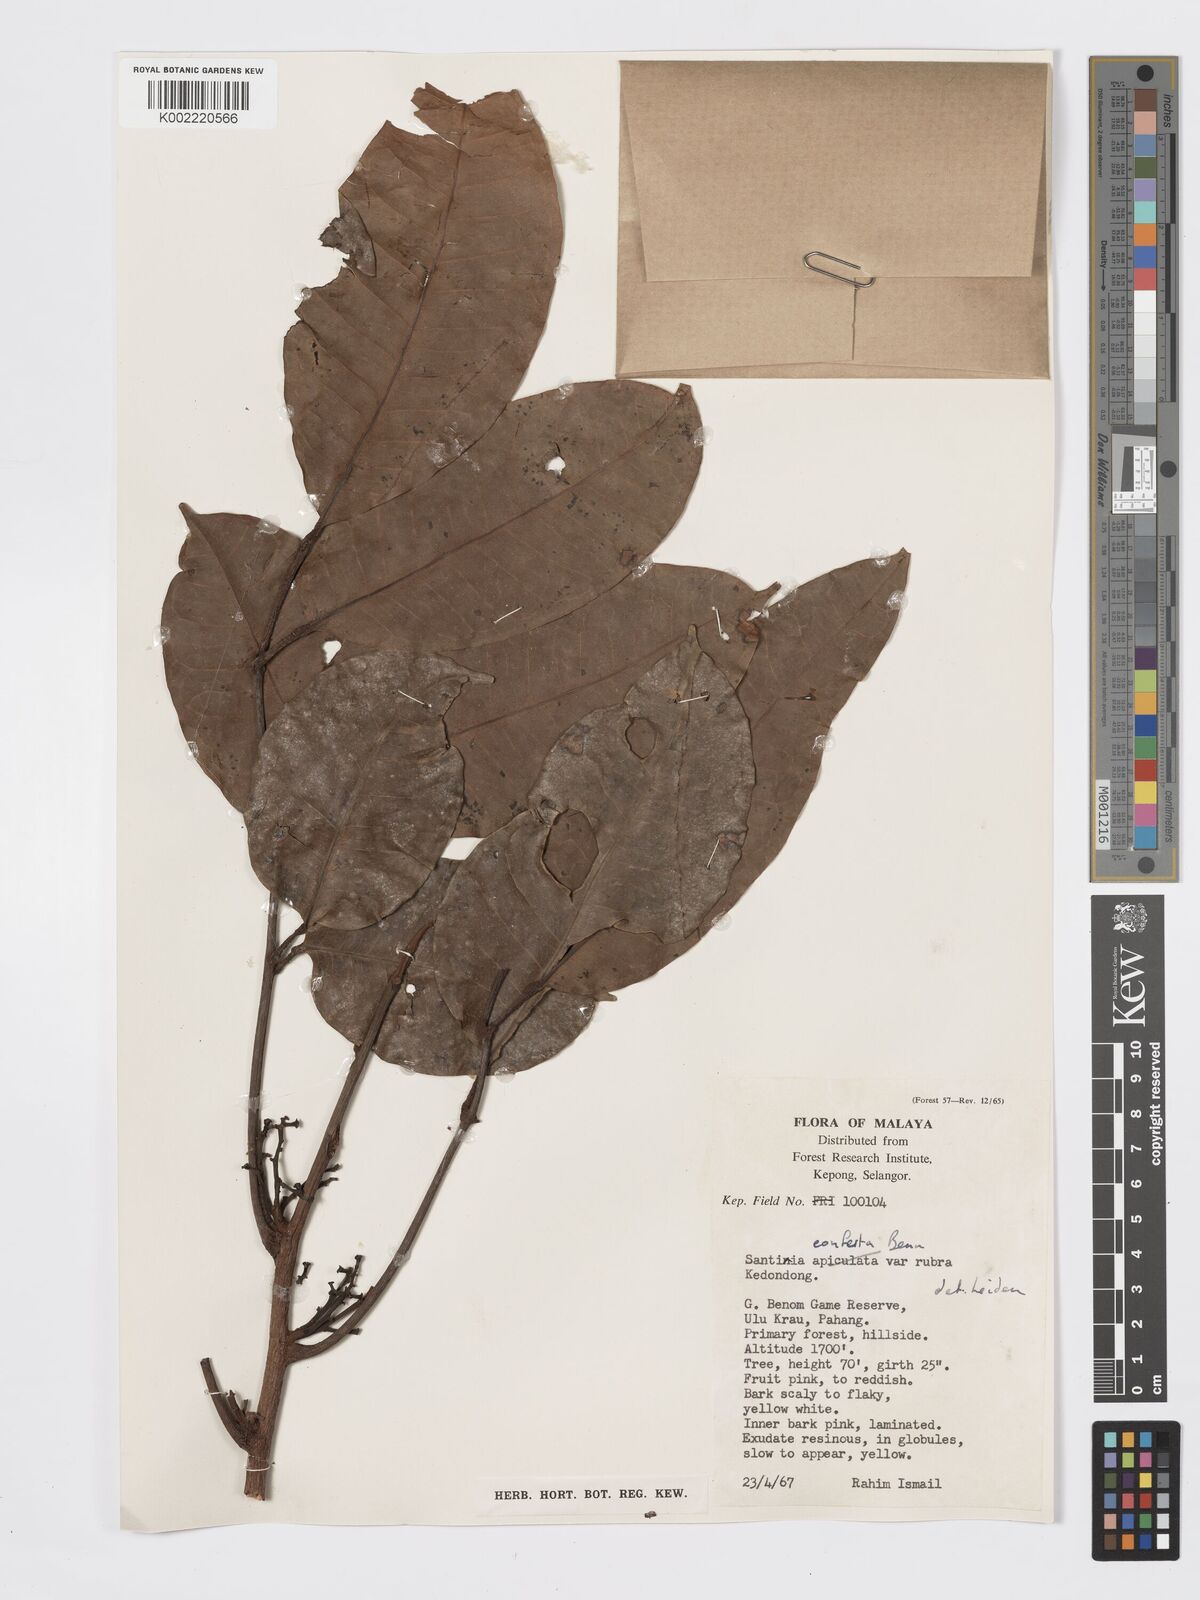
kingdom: Plantae
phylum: Tracheophyta
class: Magnoliopsida
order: Sapindales
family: Burseraceae
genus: Santiria
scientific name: Santiria conferta
